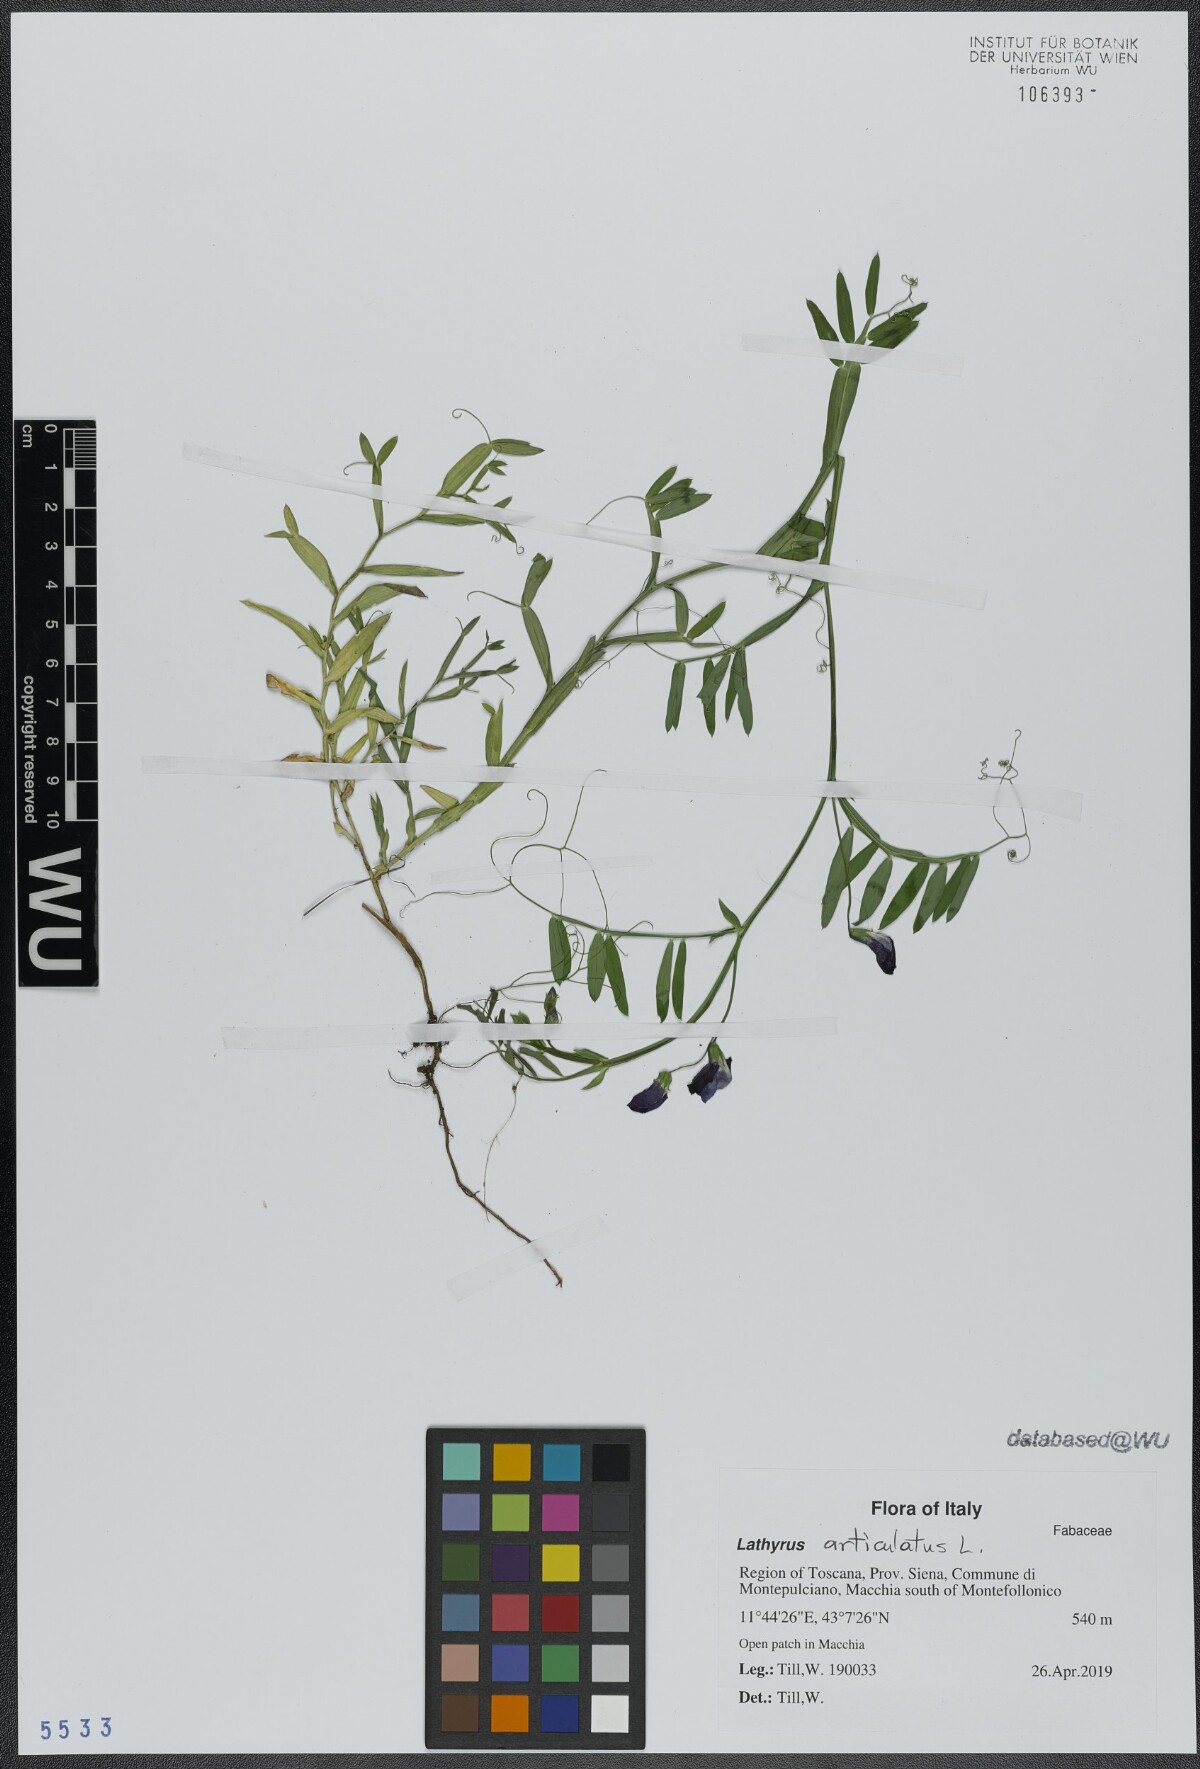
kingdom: Plantae
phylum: Tracheophyta
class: Magnoliopsida
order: Fabales
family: Fabaceae
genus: Lathyrus
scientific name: Lathyrus articulatus
